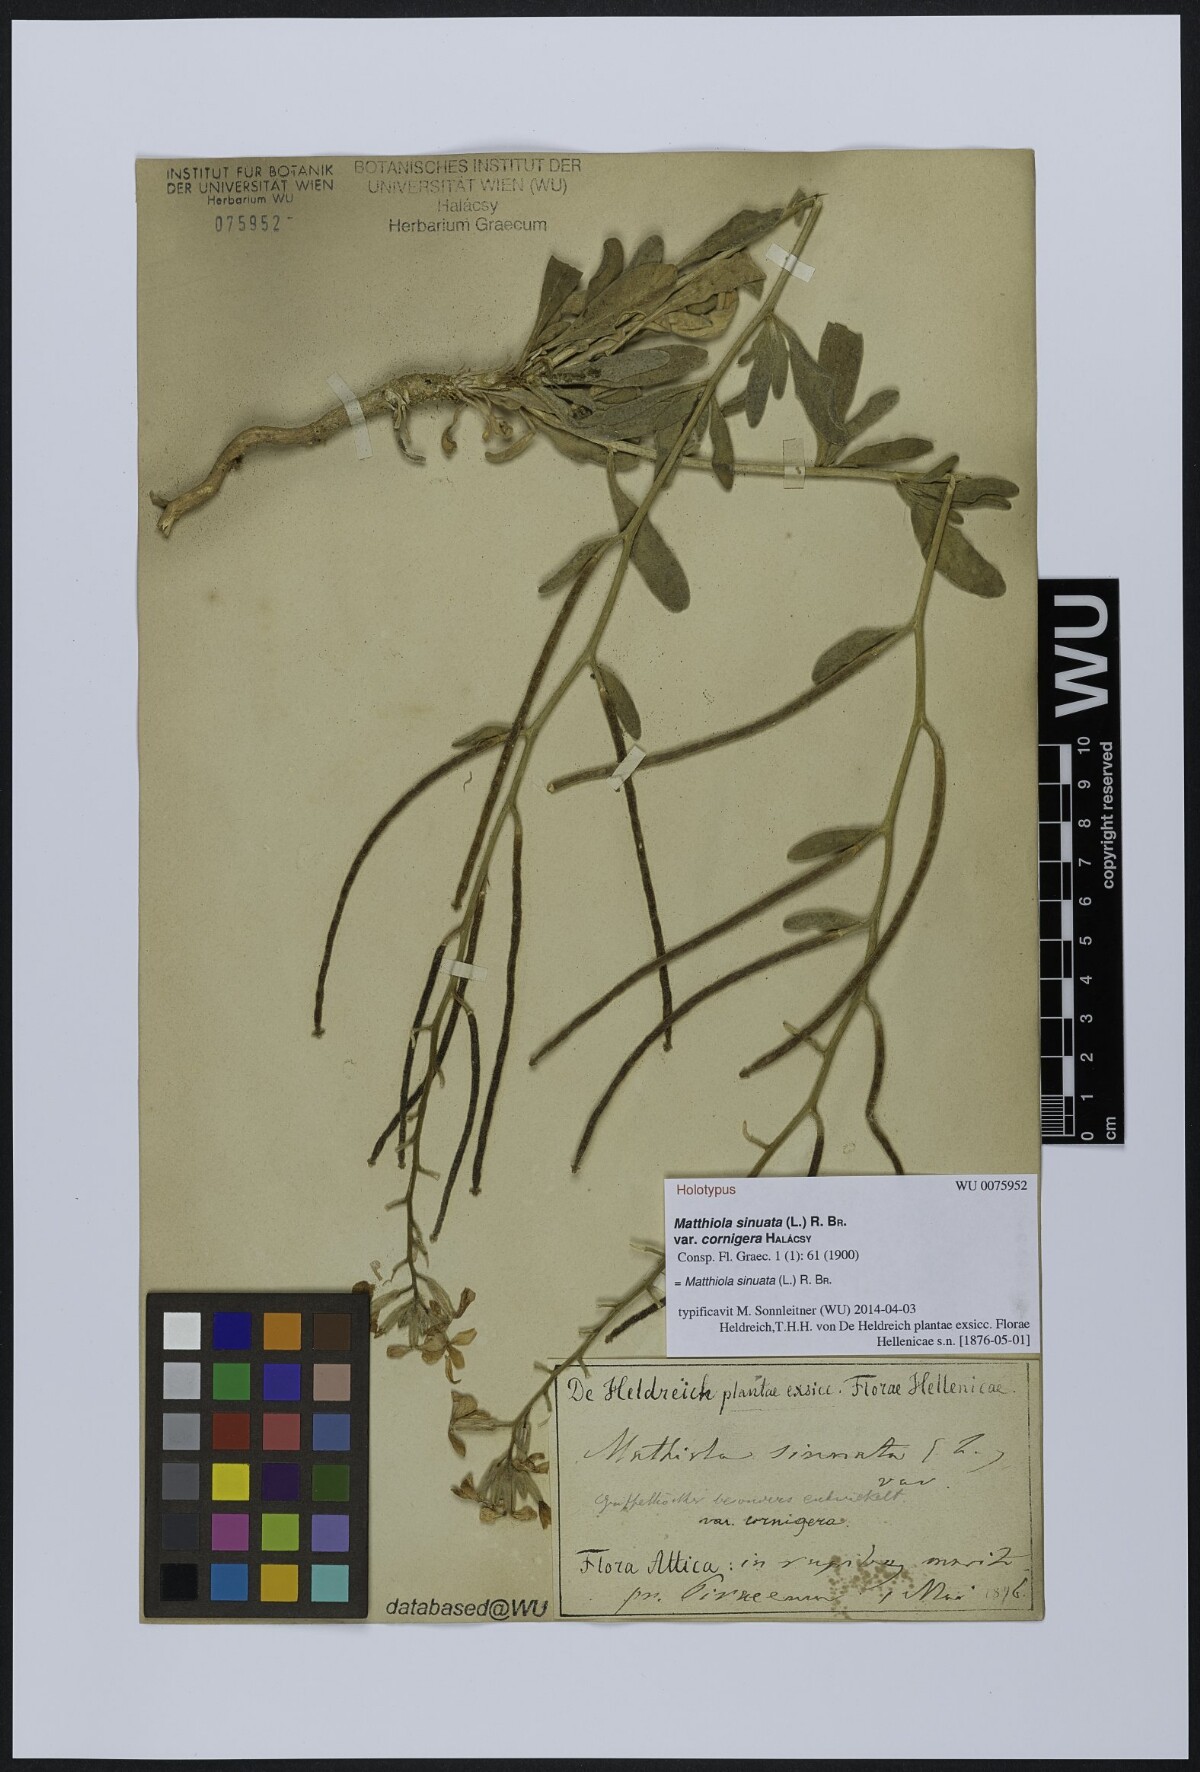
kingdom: Plantae
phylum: Tracheophyta
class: Magnoliopsida
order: Brassicales
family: Brassicaceae
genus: Matthiola
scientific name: Matthiola sinuata
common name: Sea stock
